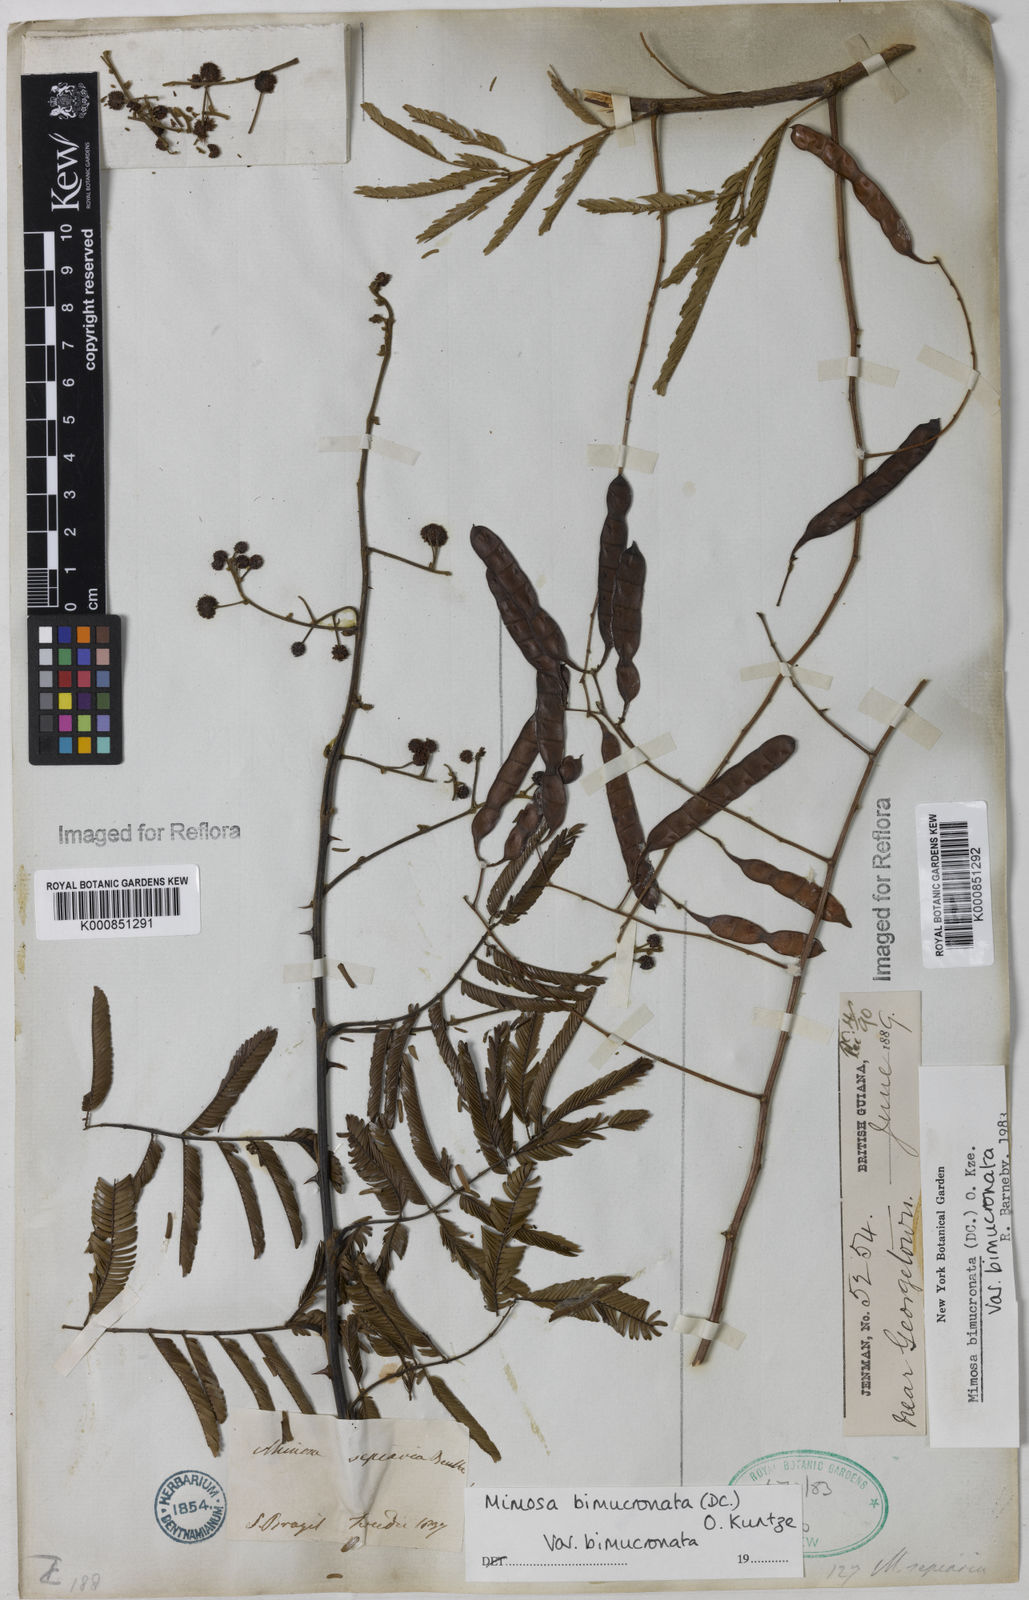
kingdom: Plantae
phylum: Tracheophyta
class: Magnoliopsida
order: Fabales
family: Fabaceae
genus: Mimosa
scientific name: Mimosa bimucronata
